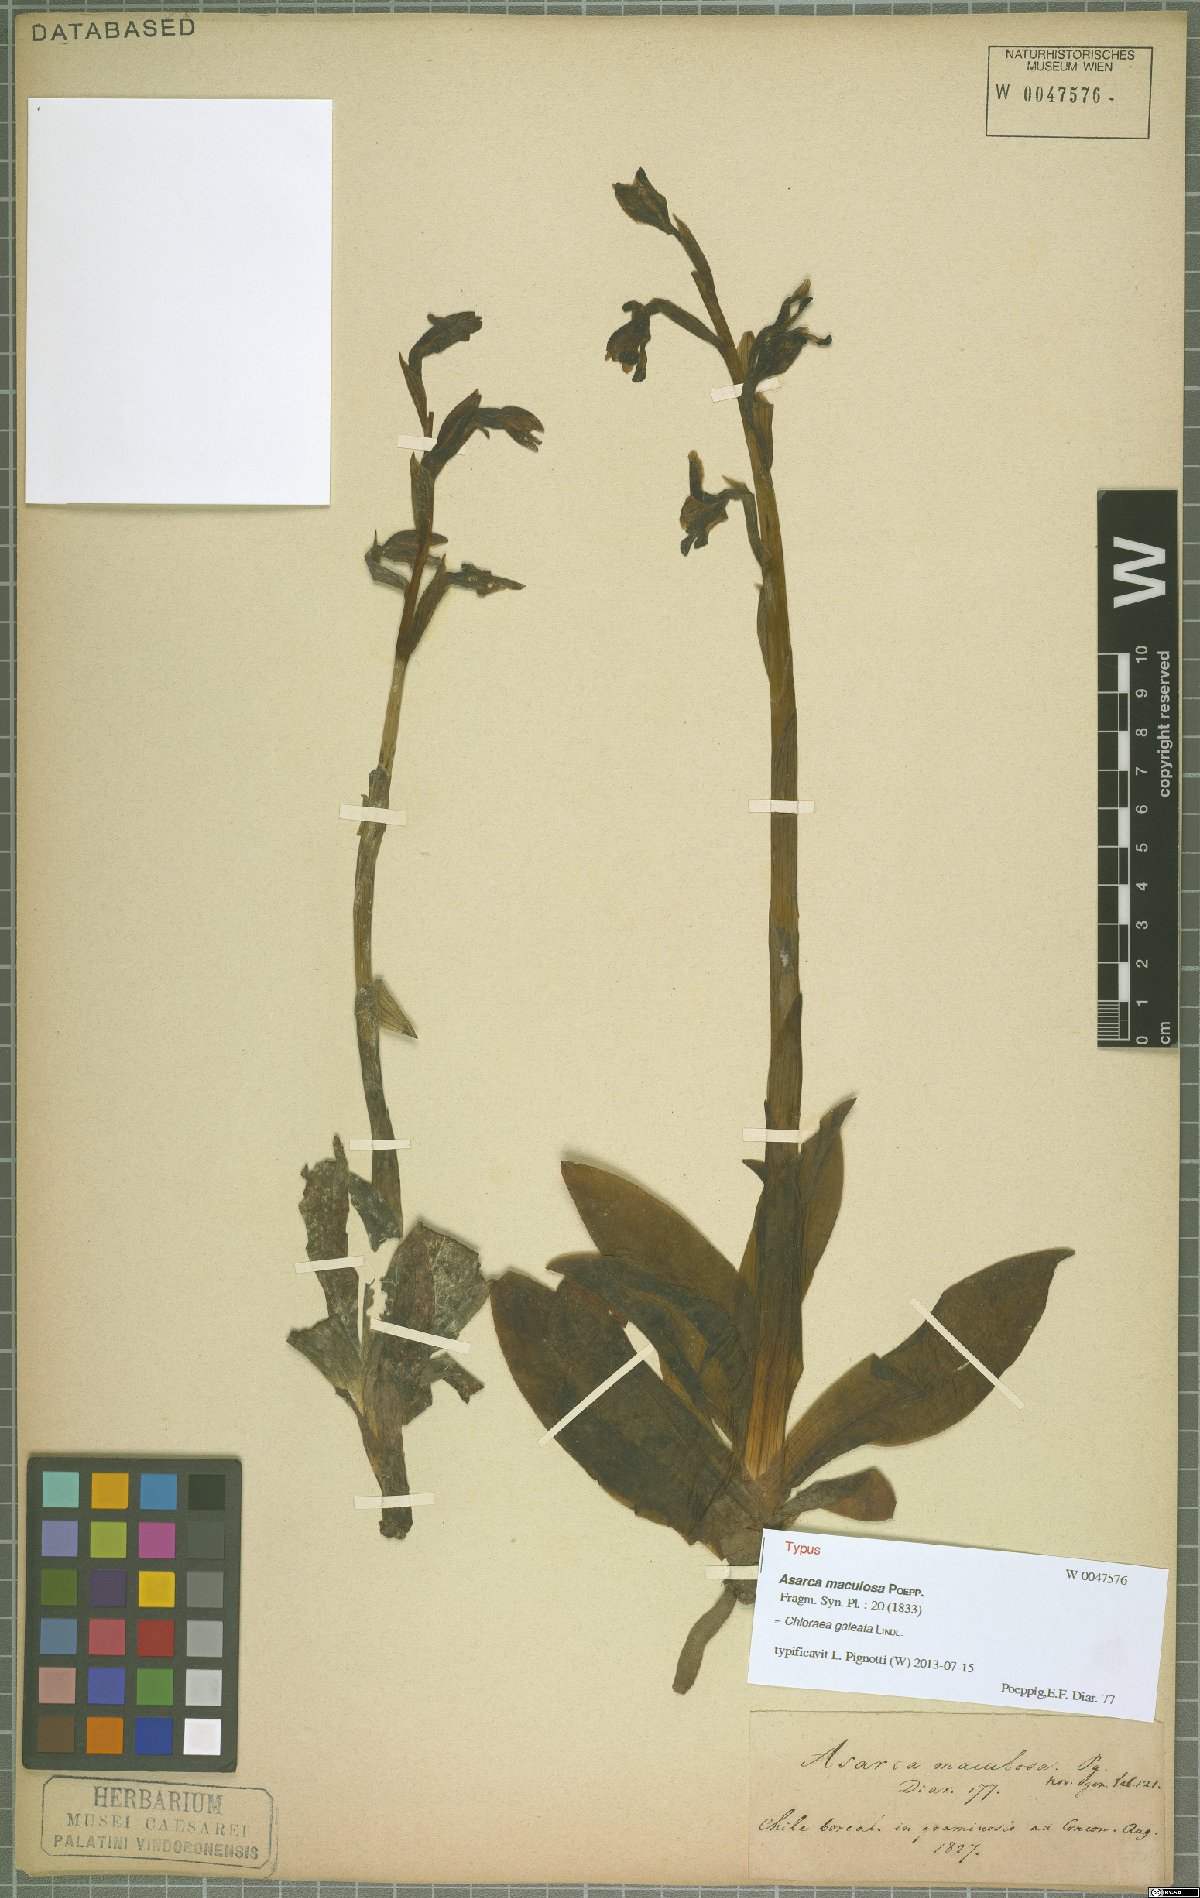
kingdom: Plantae
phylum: Tracheophyta
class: Liliopsida
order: Asparagales
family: Orchidaceae
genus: Chloraea
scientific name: Chloraea galeata
